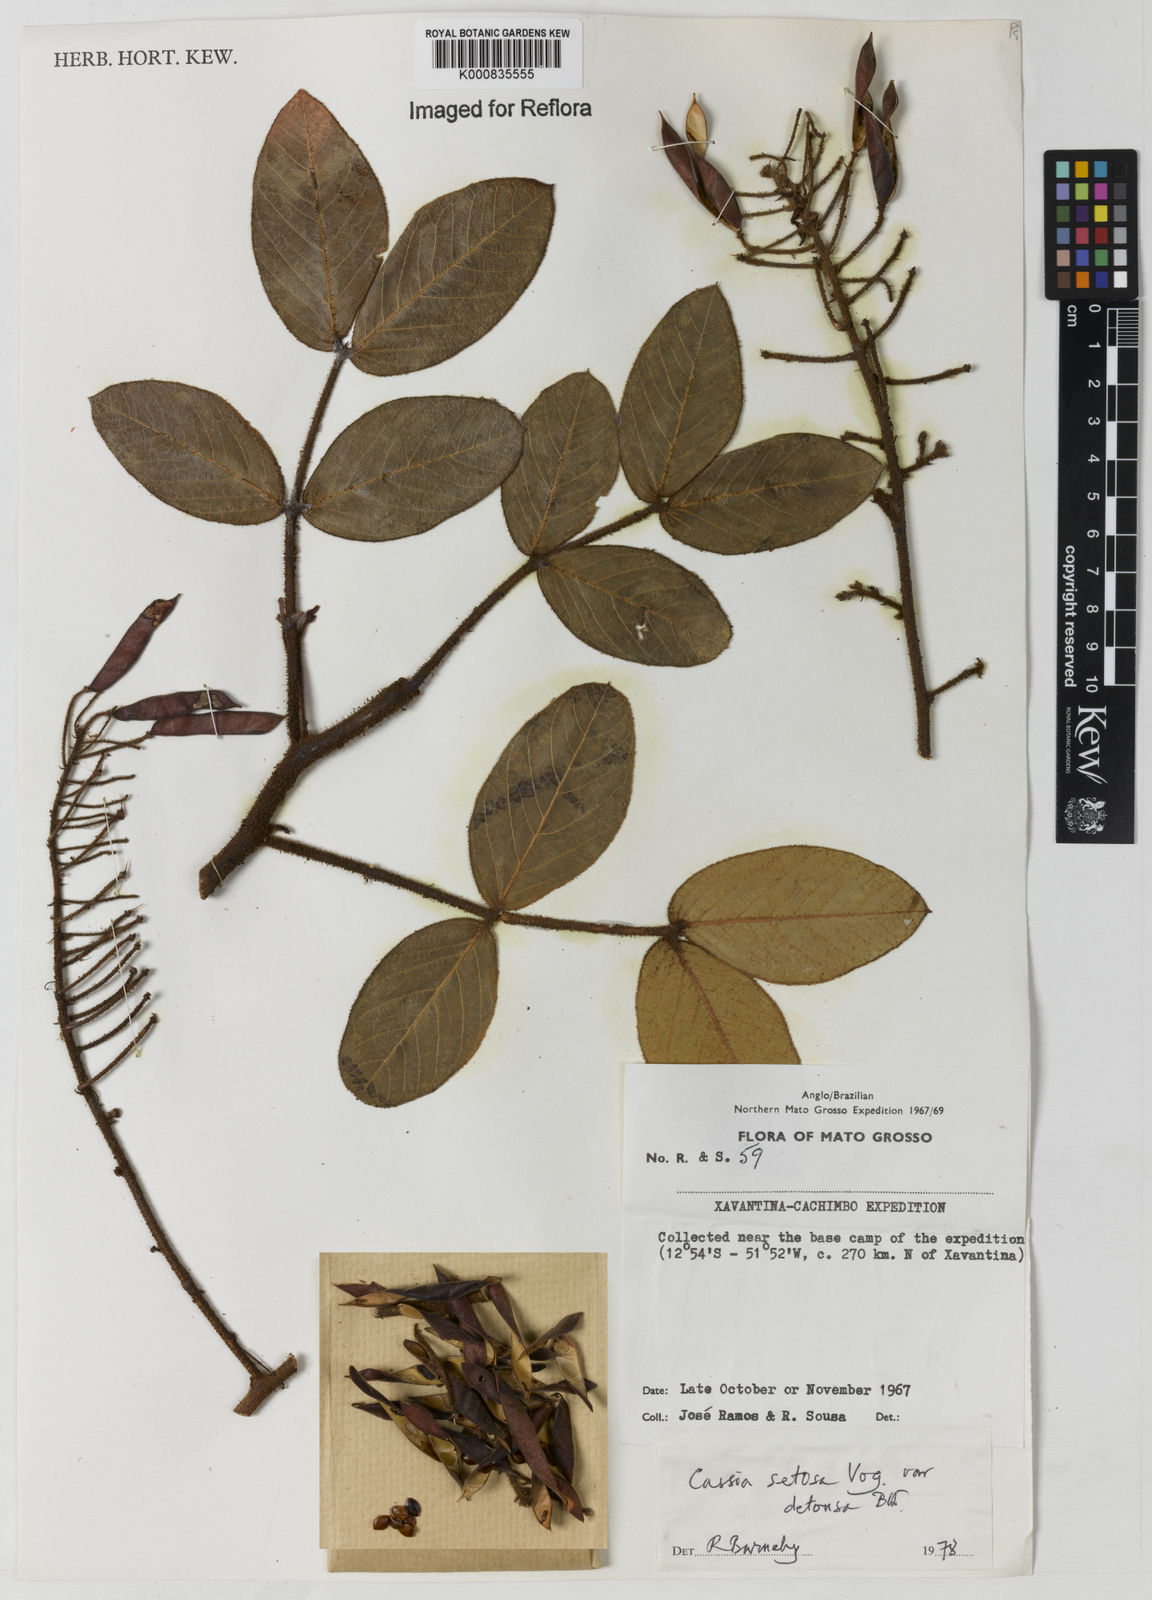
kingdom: Plantae
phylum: Tracheophyta
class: Magnoliopsida
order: Fabales
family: Fabaceae
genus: Chamaecrista
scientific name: Chamaecrista setosa
